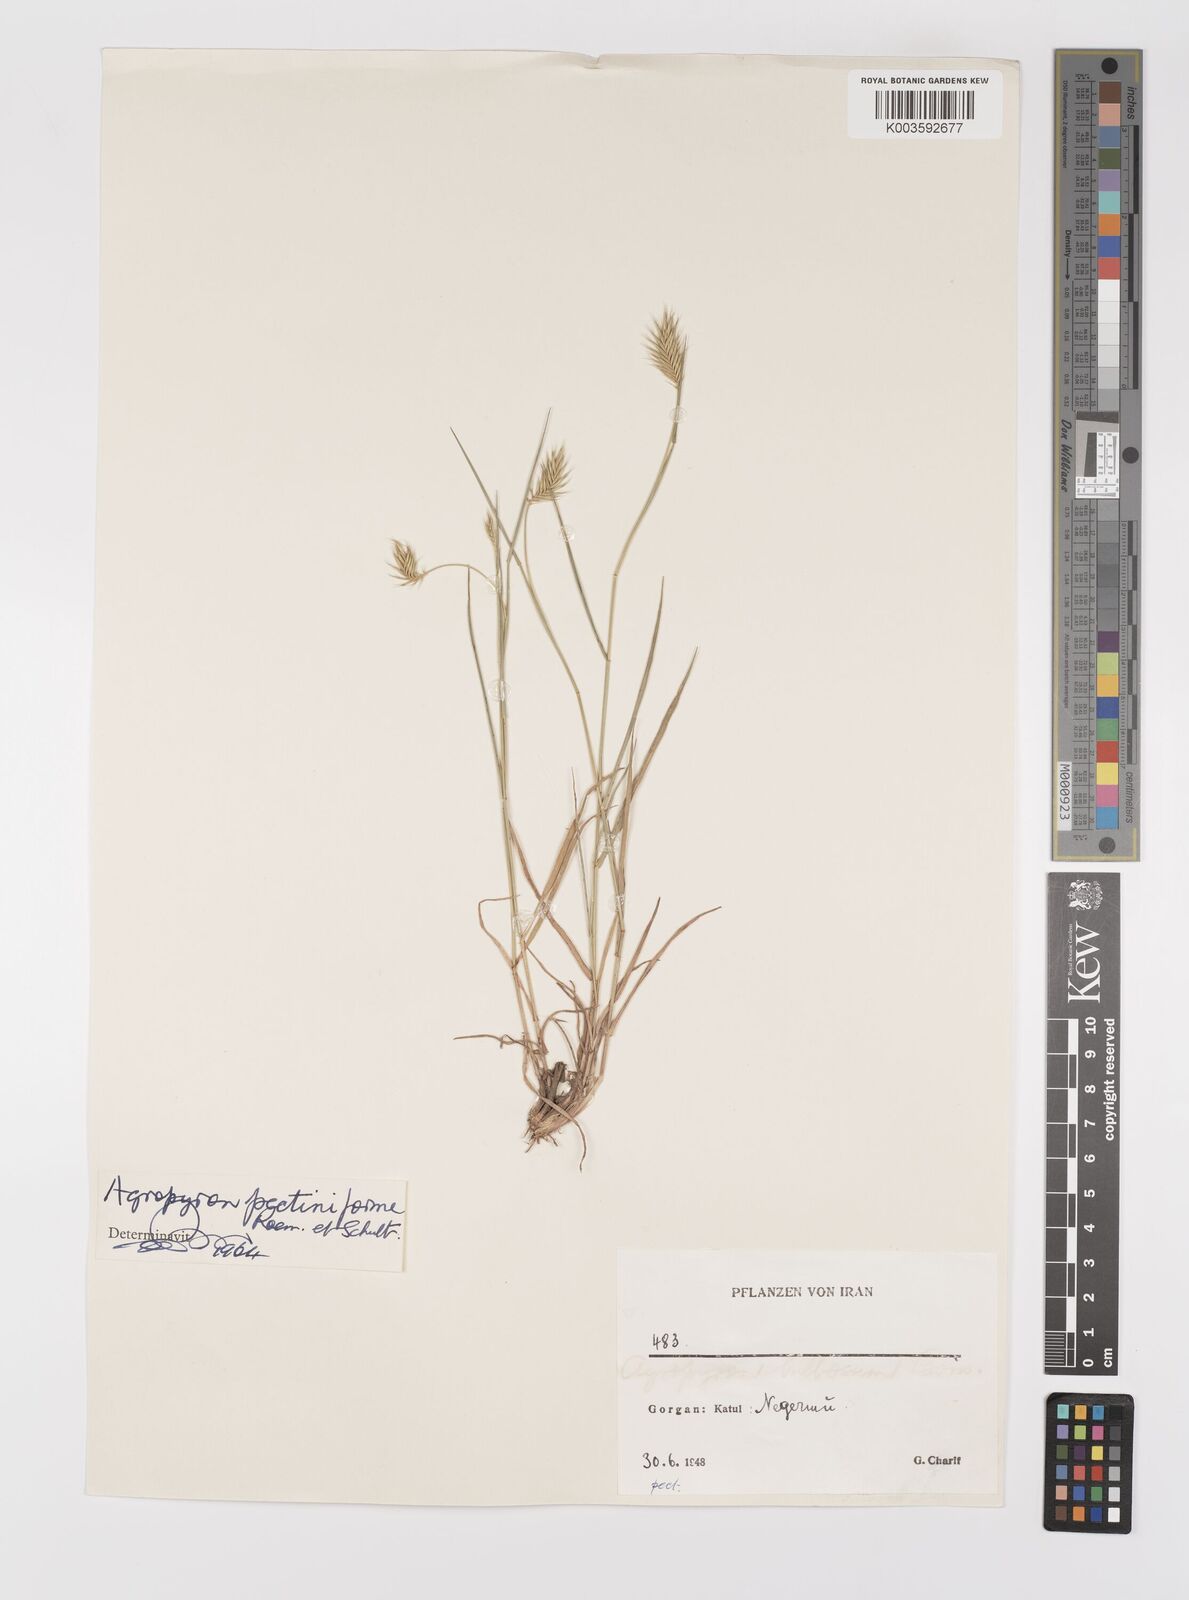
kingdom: Plantae
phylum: Tracheophyta
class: Liliopsida
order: Poales
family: Poaceae
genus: Agropyron
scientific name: Agropyron
